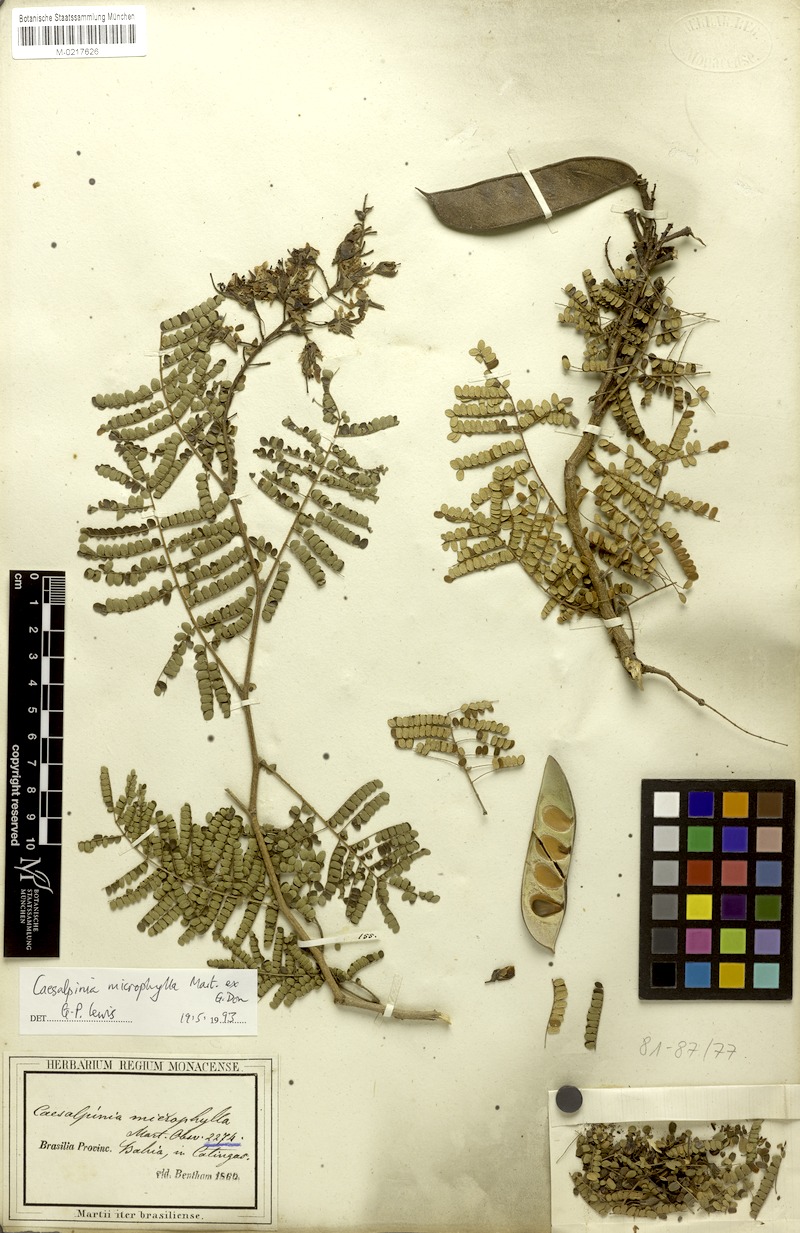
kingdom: Plantae
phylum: Tracheophyta
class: Magnoliopsida
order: Fabales
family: Fabaceae
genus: Cenostigma
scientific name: Cenostigma microphyllum
